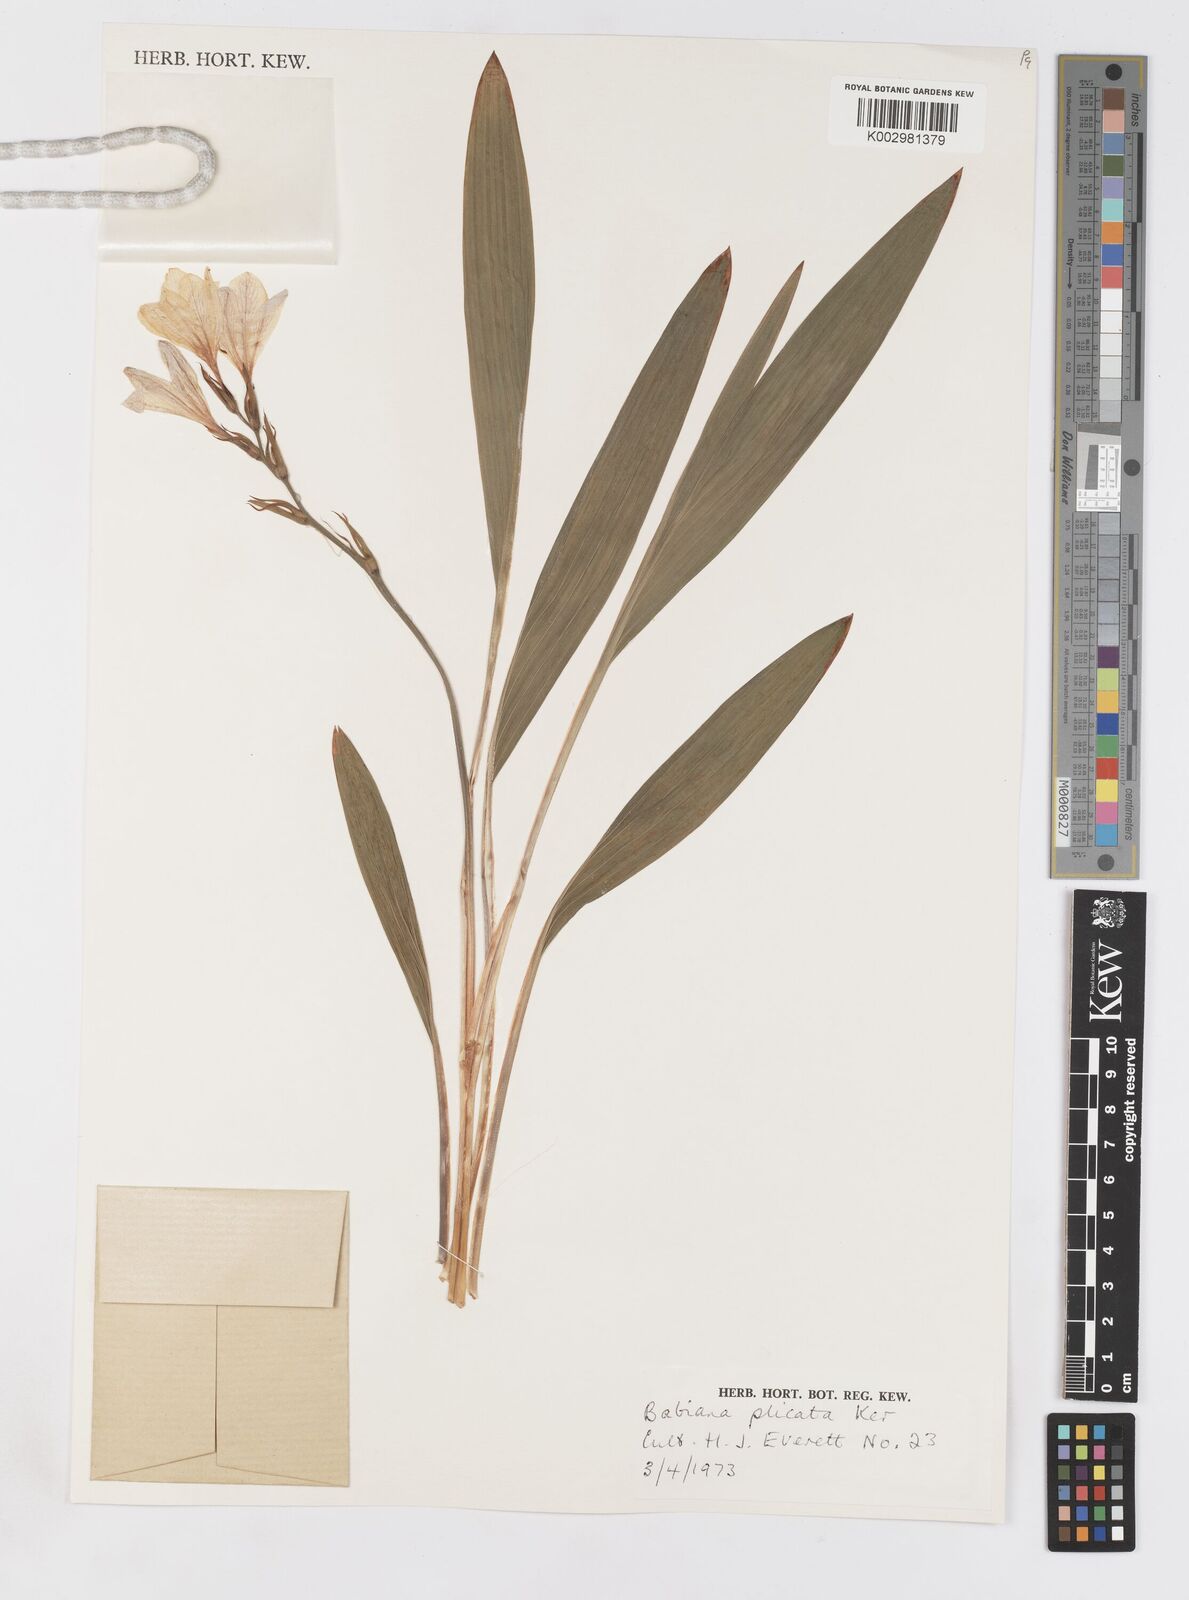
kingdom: Plantae
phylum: Tracheophyta
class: Liliopsida
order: Asparagales
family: Iridaceae
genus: Babiana
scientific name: Babiana fragrans
